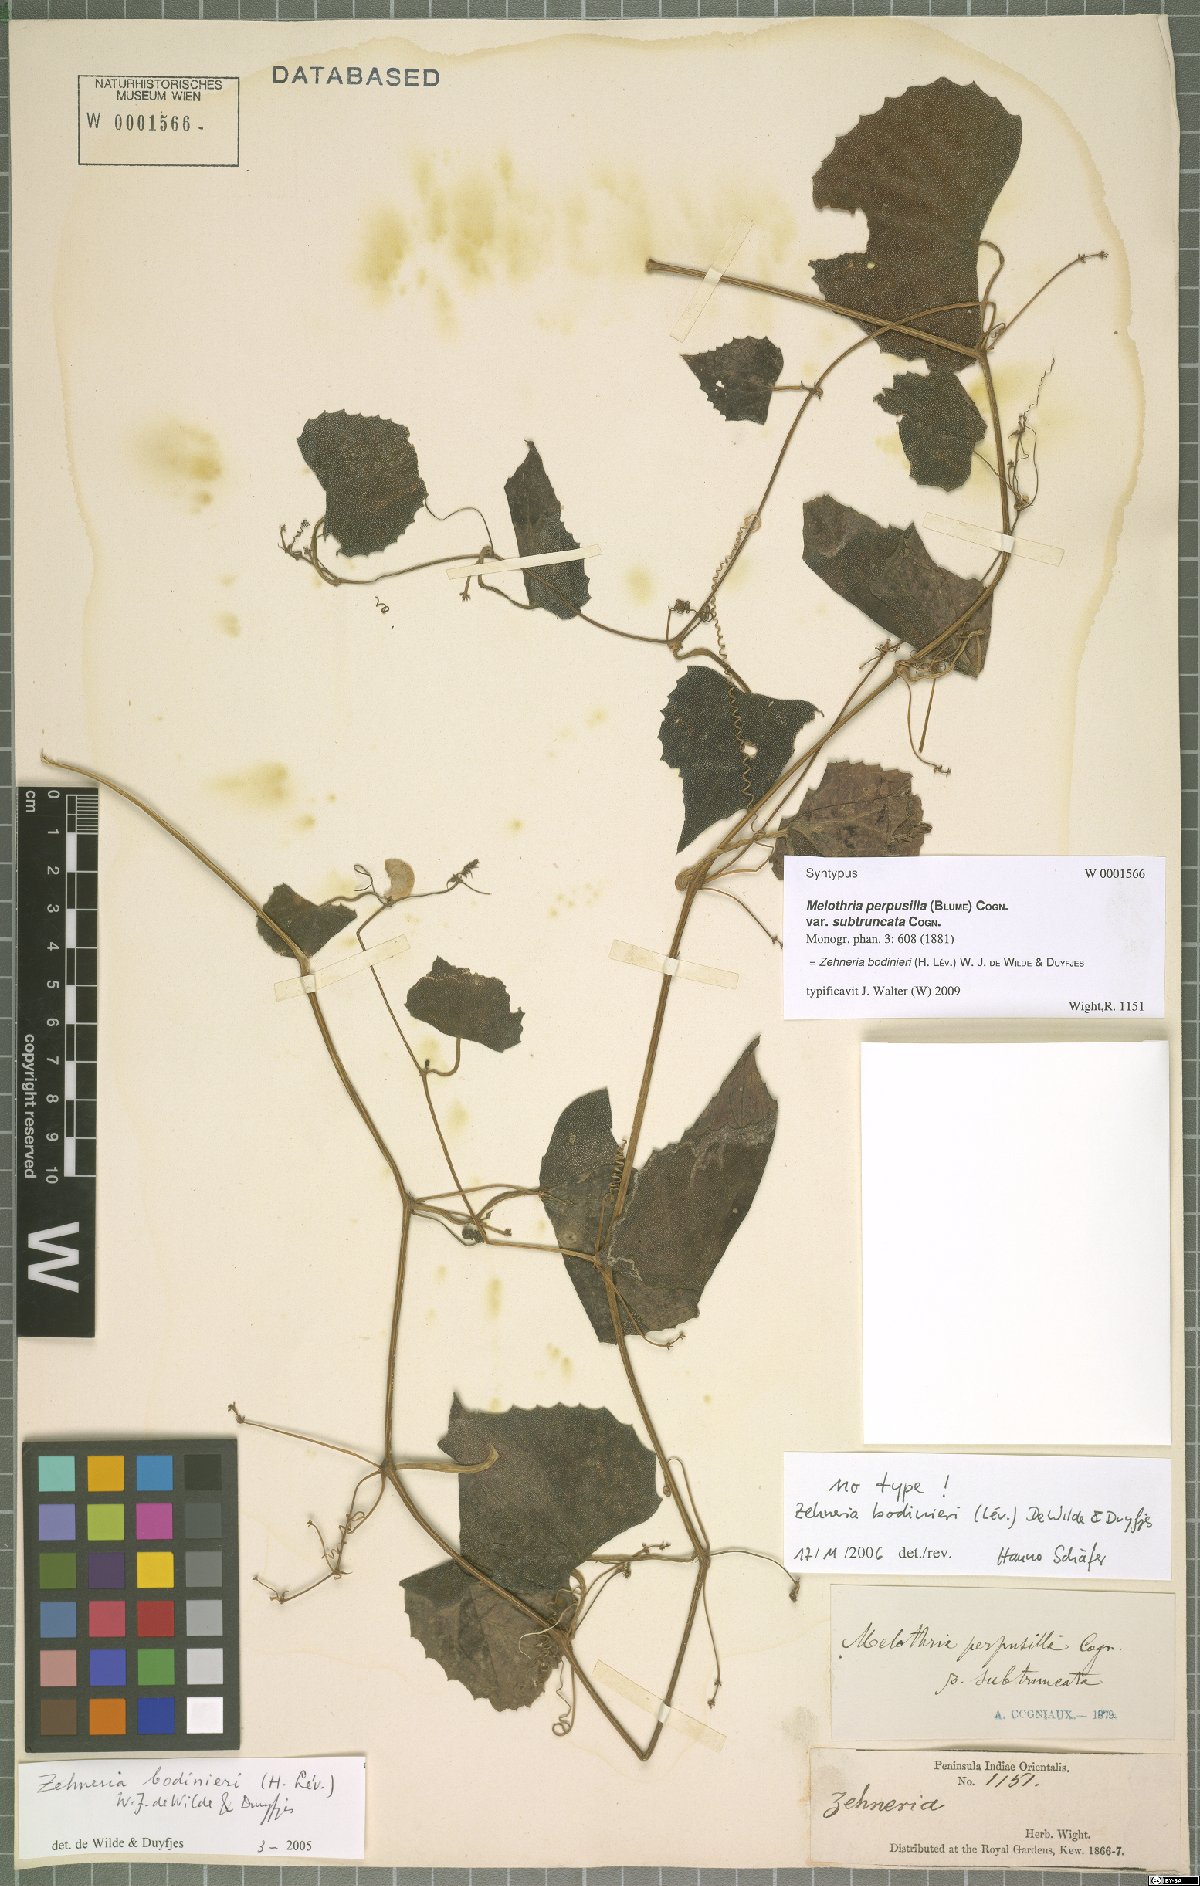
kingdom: Plantae
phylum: Tracheophyta
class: Magnoliopsida
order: Cucurbitales
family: Cucurbitaceae
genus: Zehneria
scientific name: Zehneria bodinieri
